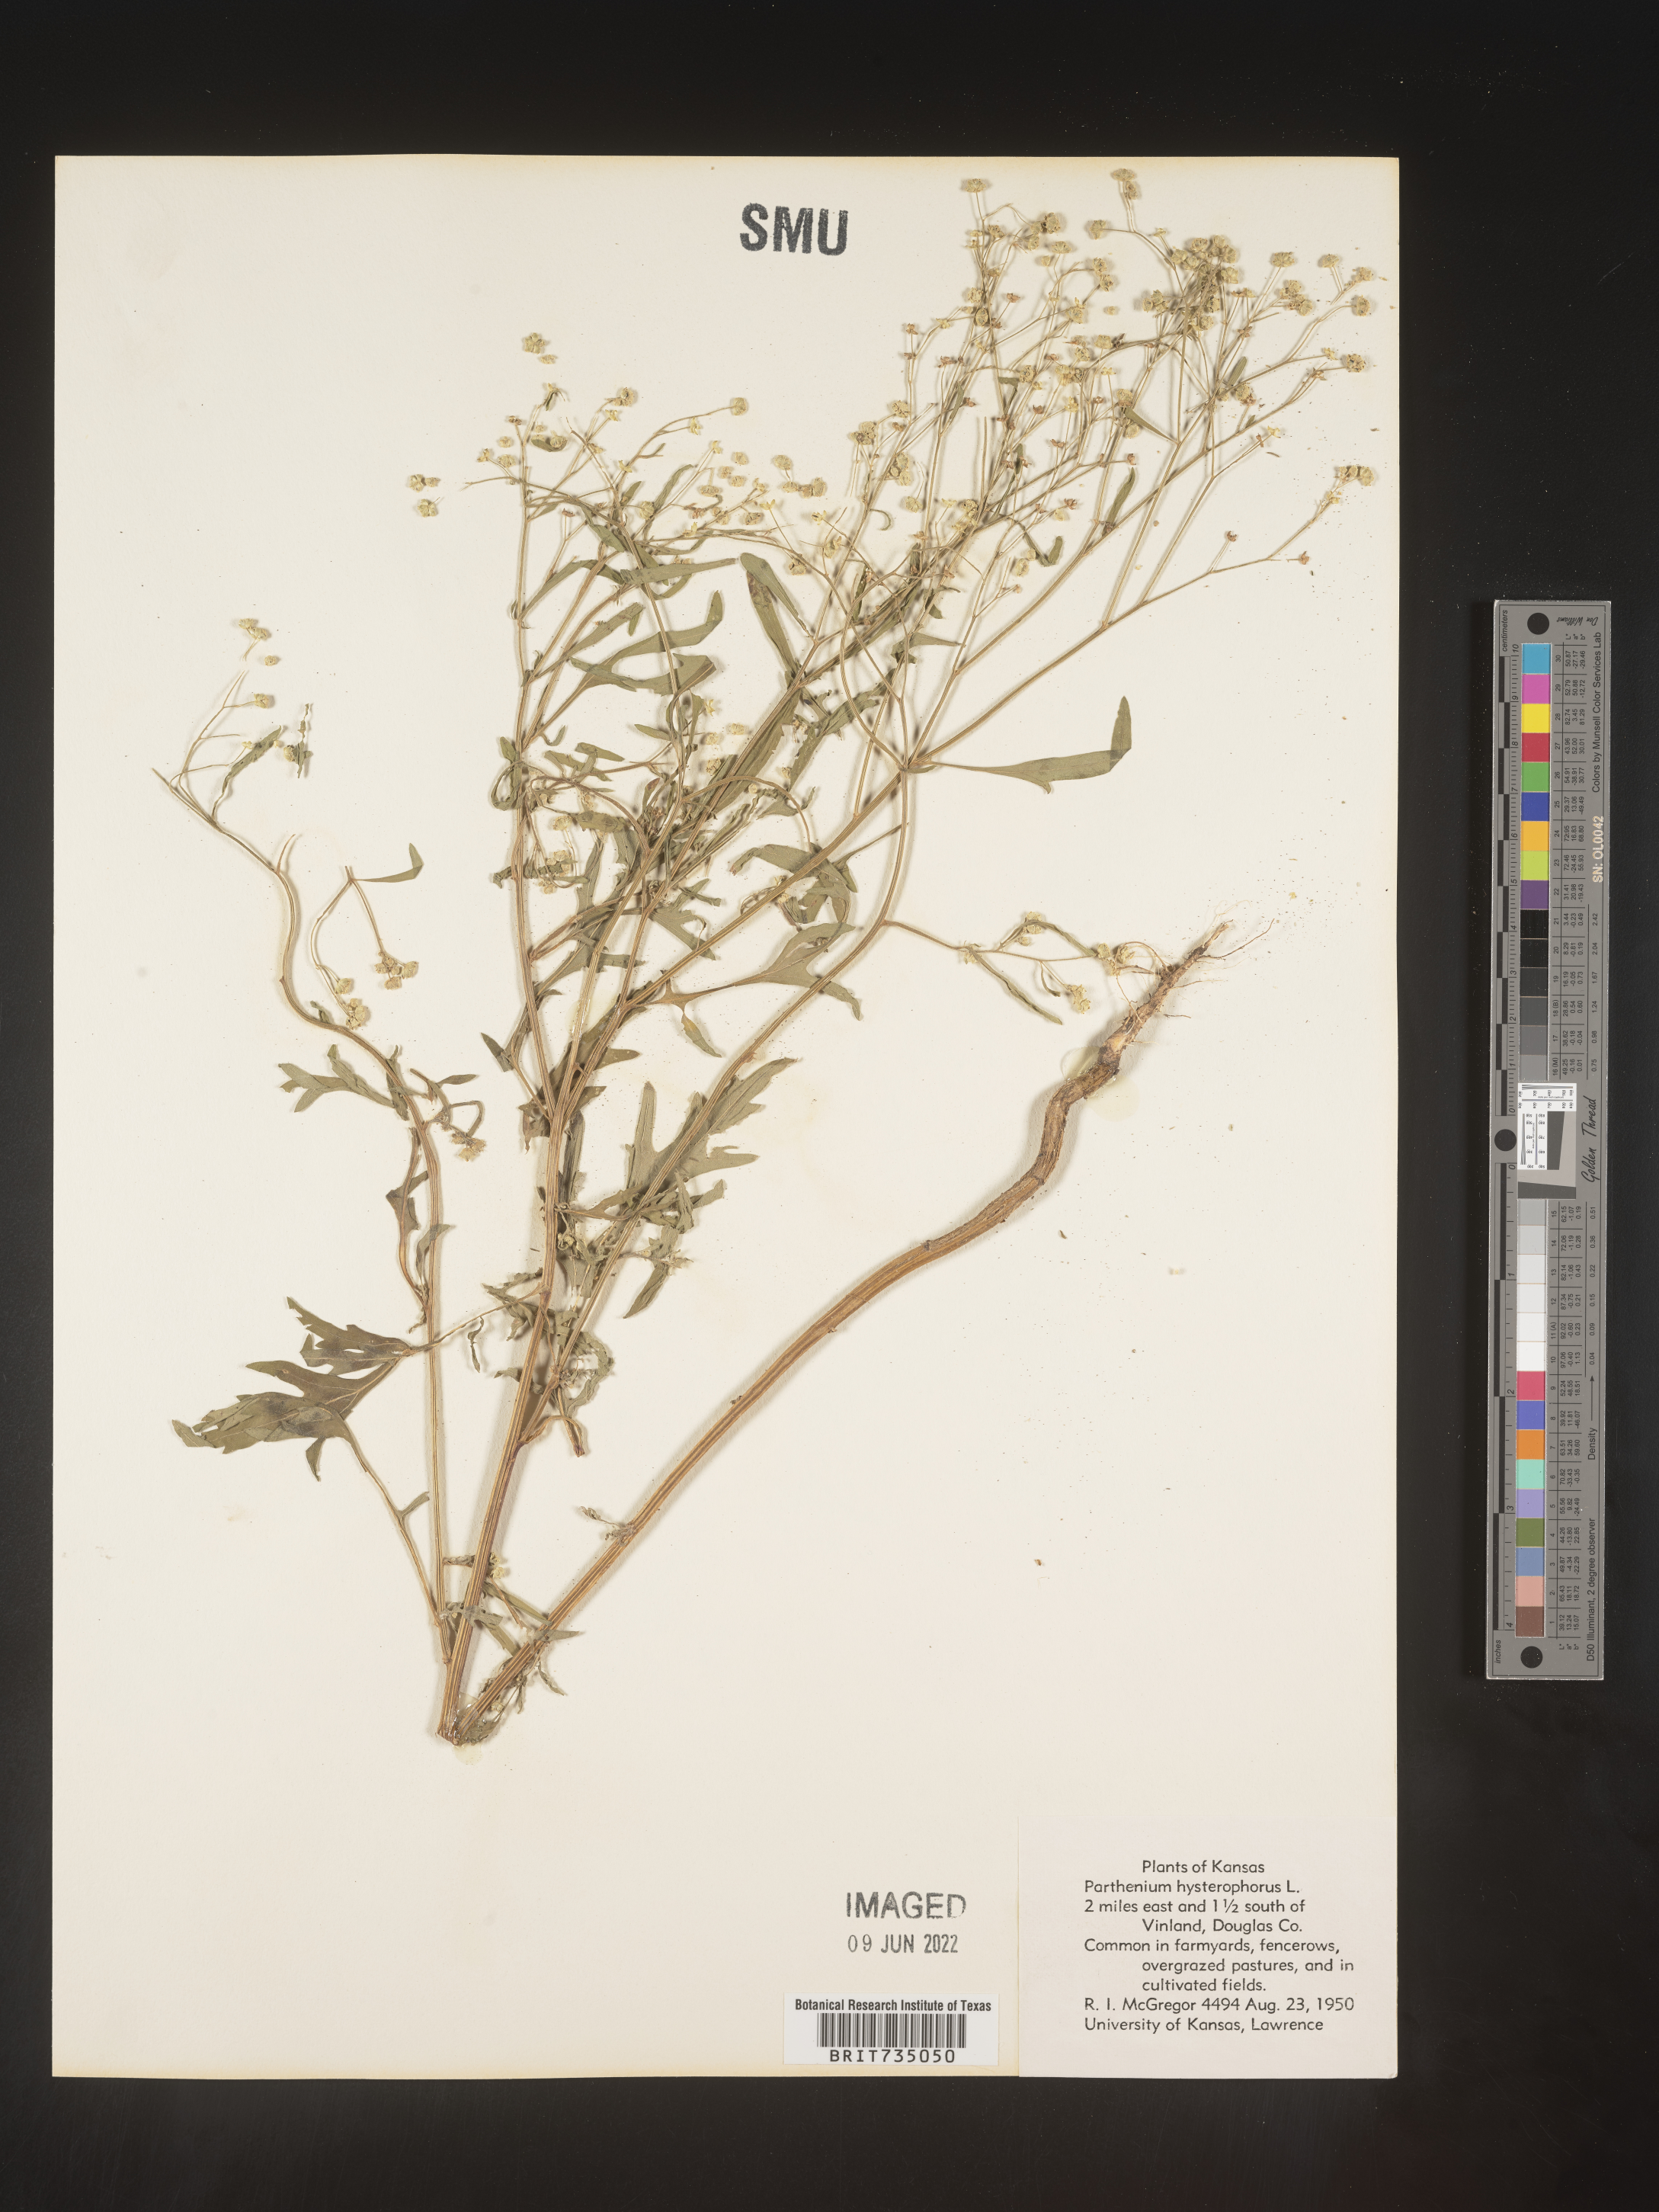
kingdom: Plantae
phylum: Tracheophyta
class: Magnoliopsida
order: Asterales
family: Asteraceae
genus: Parthenium
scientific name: Parthenium hysterophorus
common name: Santa maria feverfew
